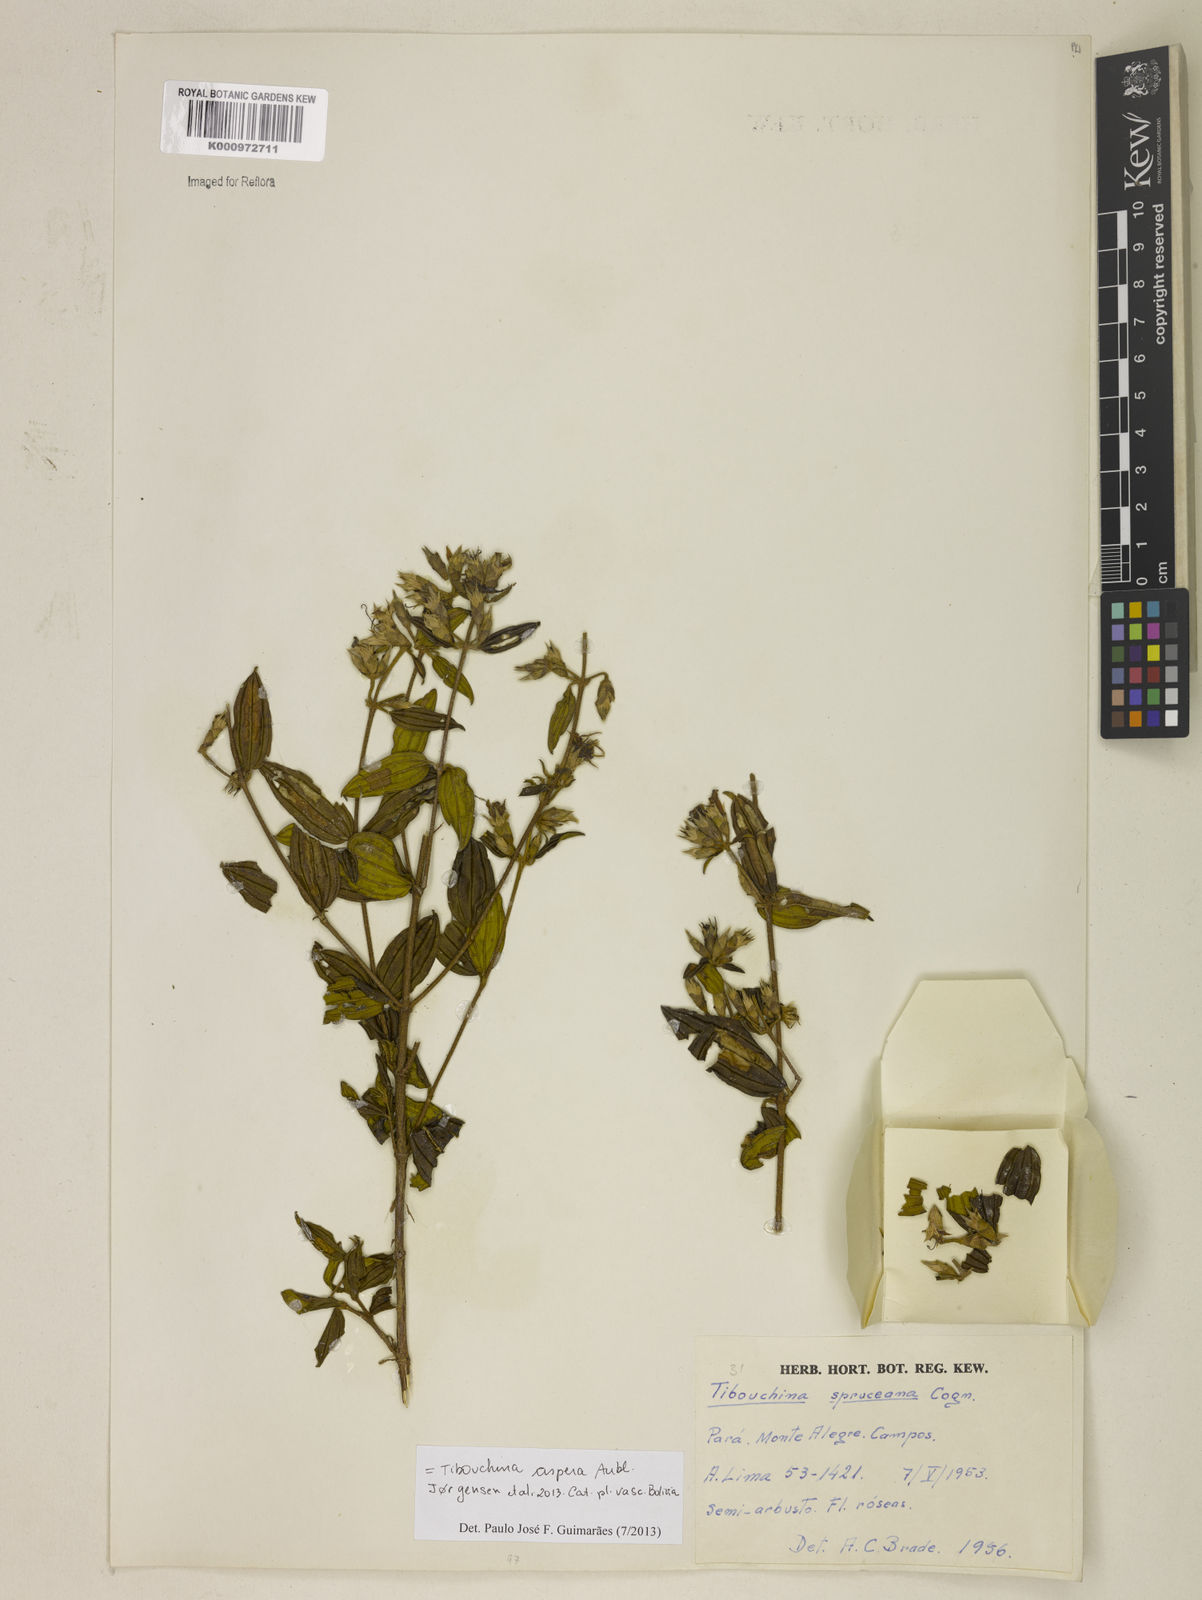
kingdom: Plantae
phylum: Tracheophyta
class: Magnoliopsida
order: Myrtales
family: Melastomataceae
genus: Tibouchina
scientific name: Tibouchina aspera
